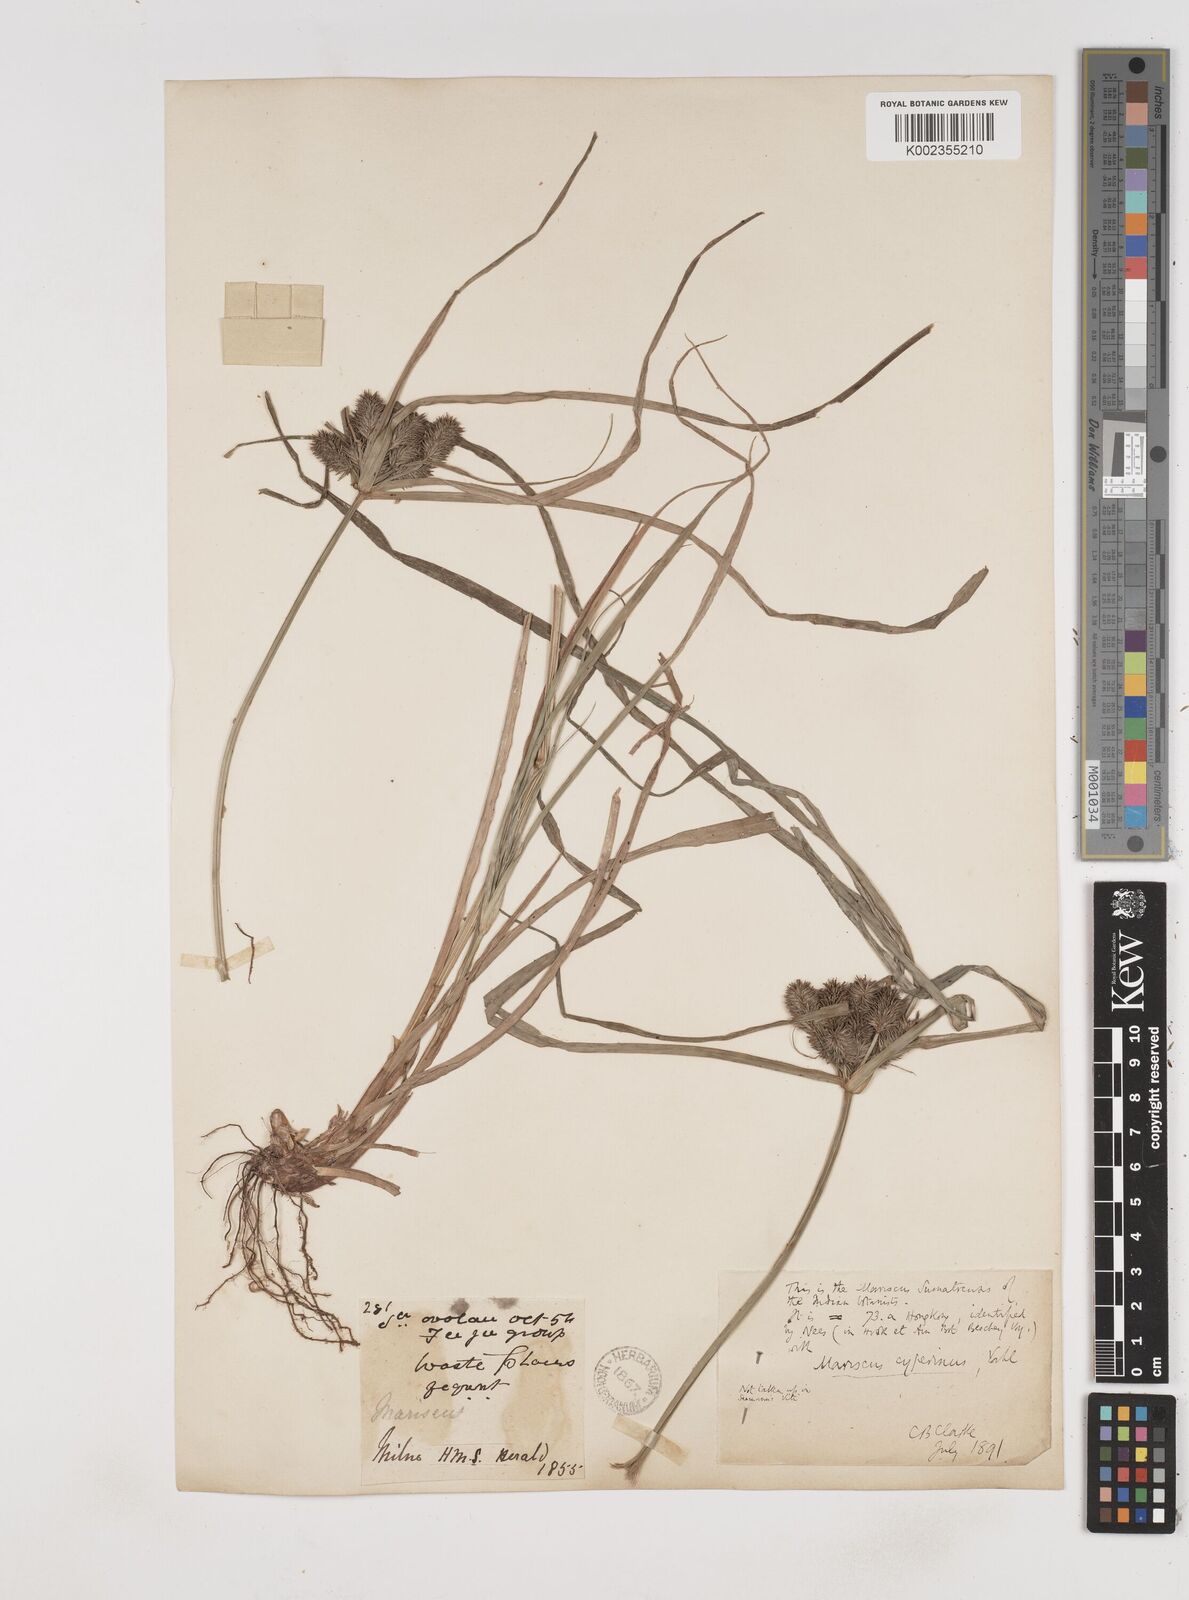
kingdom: Plantae
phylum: Tracheophyta
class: Liliopsida
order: Poales
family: Cyperaceae
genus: Cyperus
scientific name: Cyperus cyperinus
